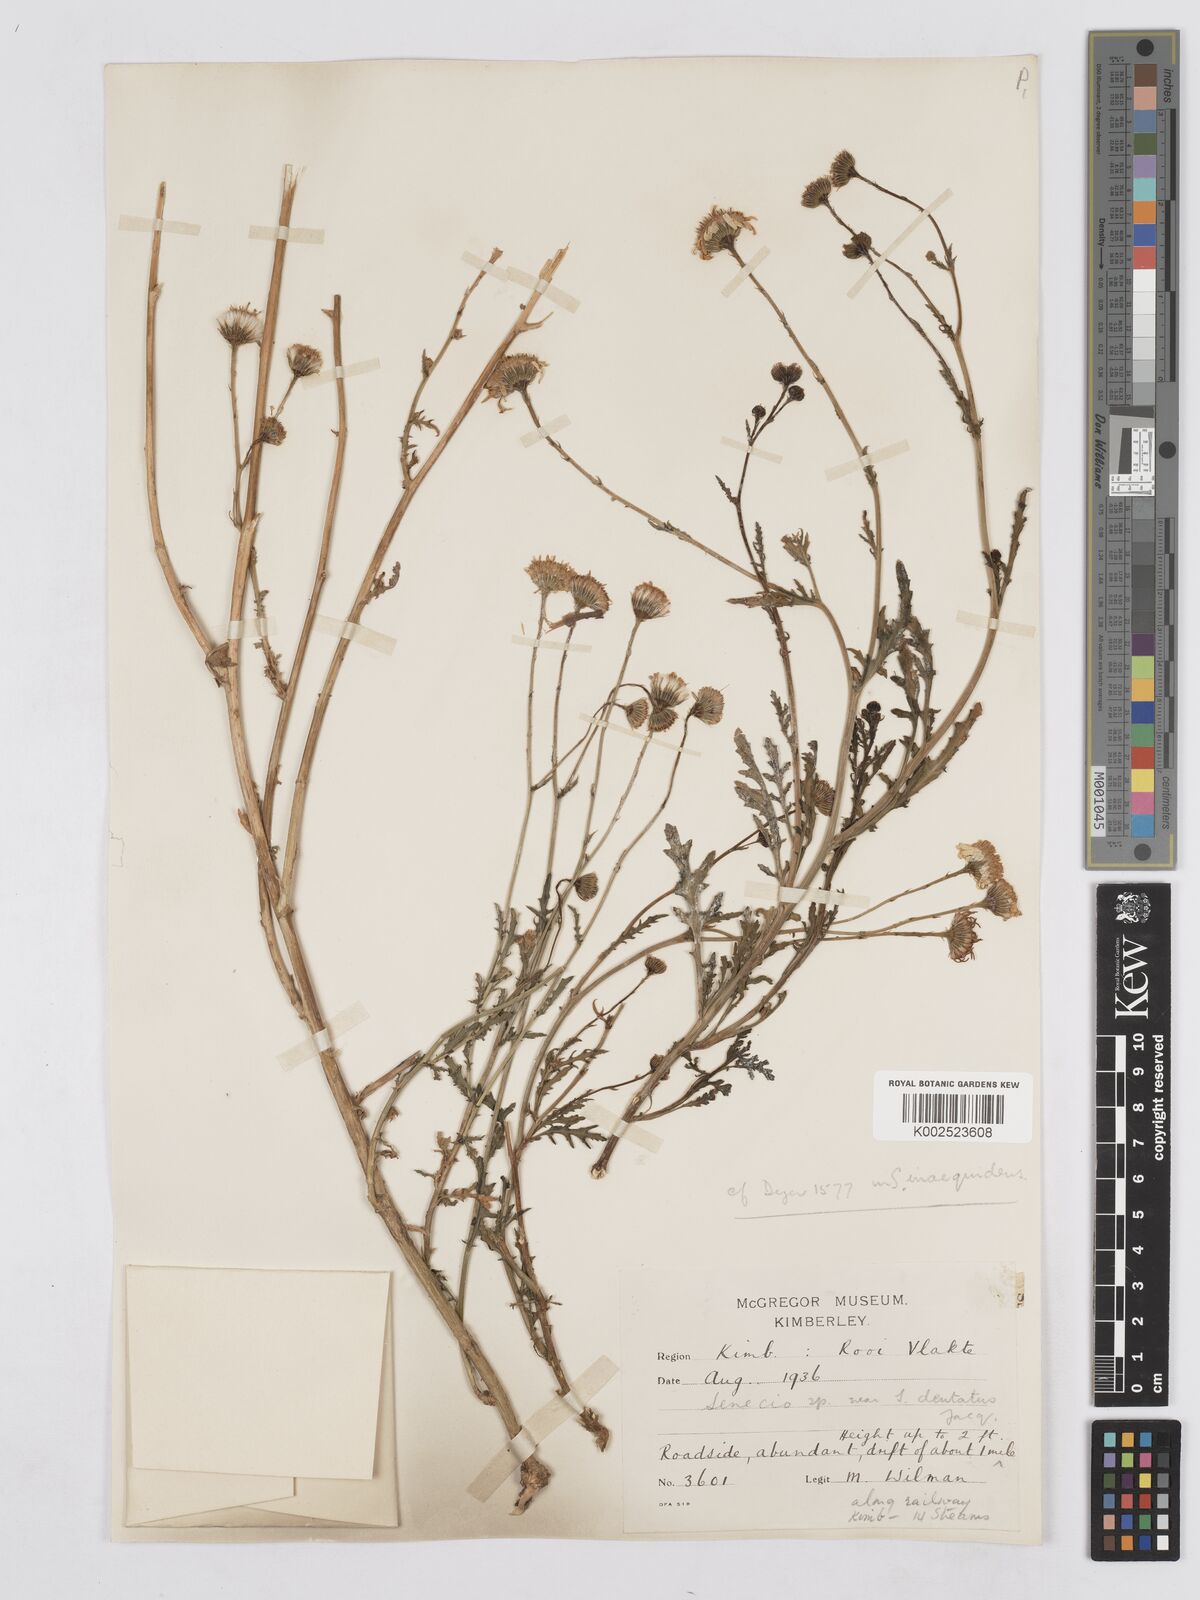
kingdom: Plantae
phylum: Tracheophyta
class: Magnoliopsida
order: Asterales
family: Asteraceae
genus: Senecio
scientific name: Senecio
